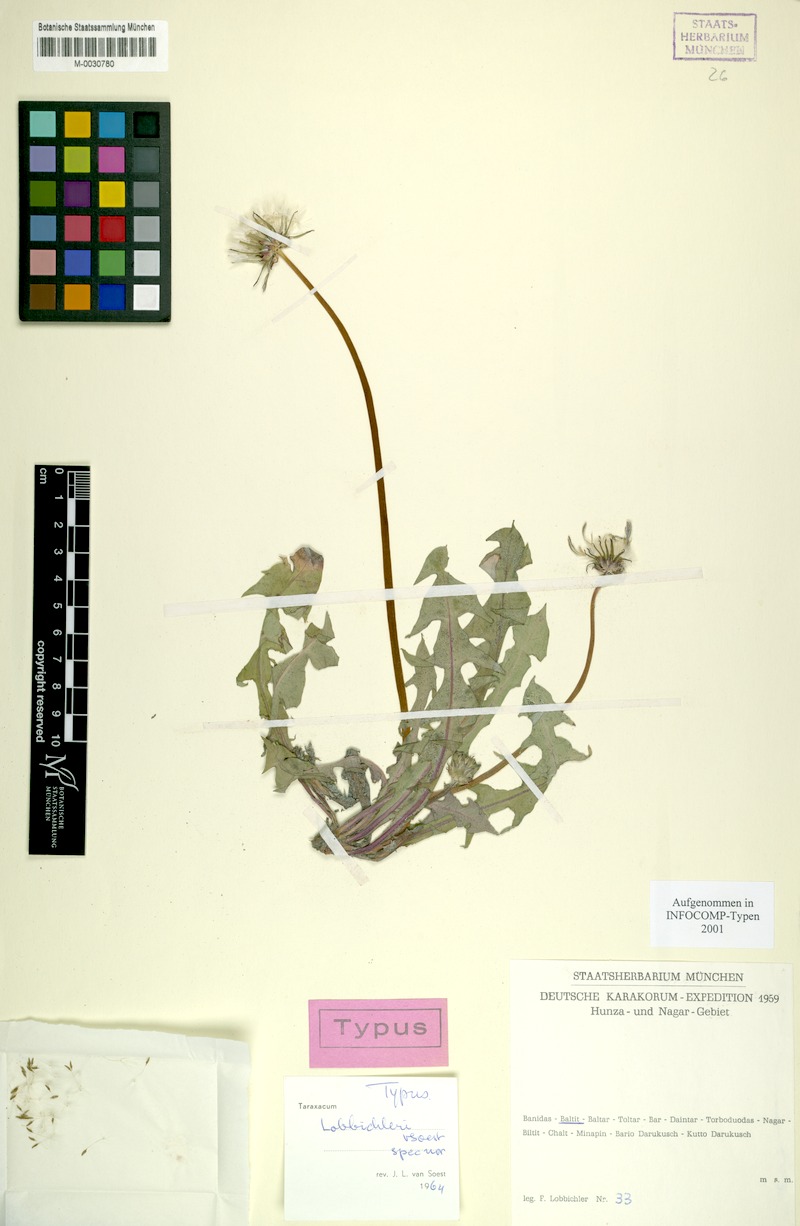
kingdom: Plantae
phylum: Tracheophyta
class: Magnoliopsida
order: Asterales
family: Asteraceae
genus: Taraxacum
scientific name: Taraxacum lobbichleri
